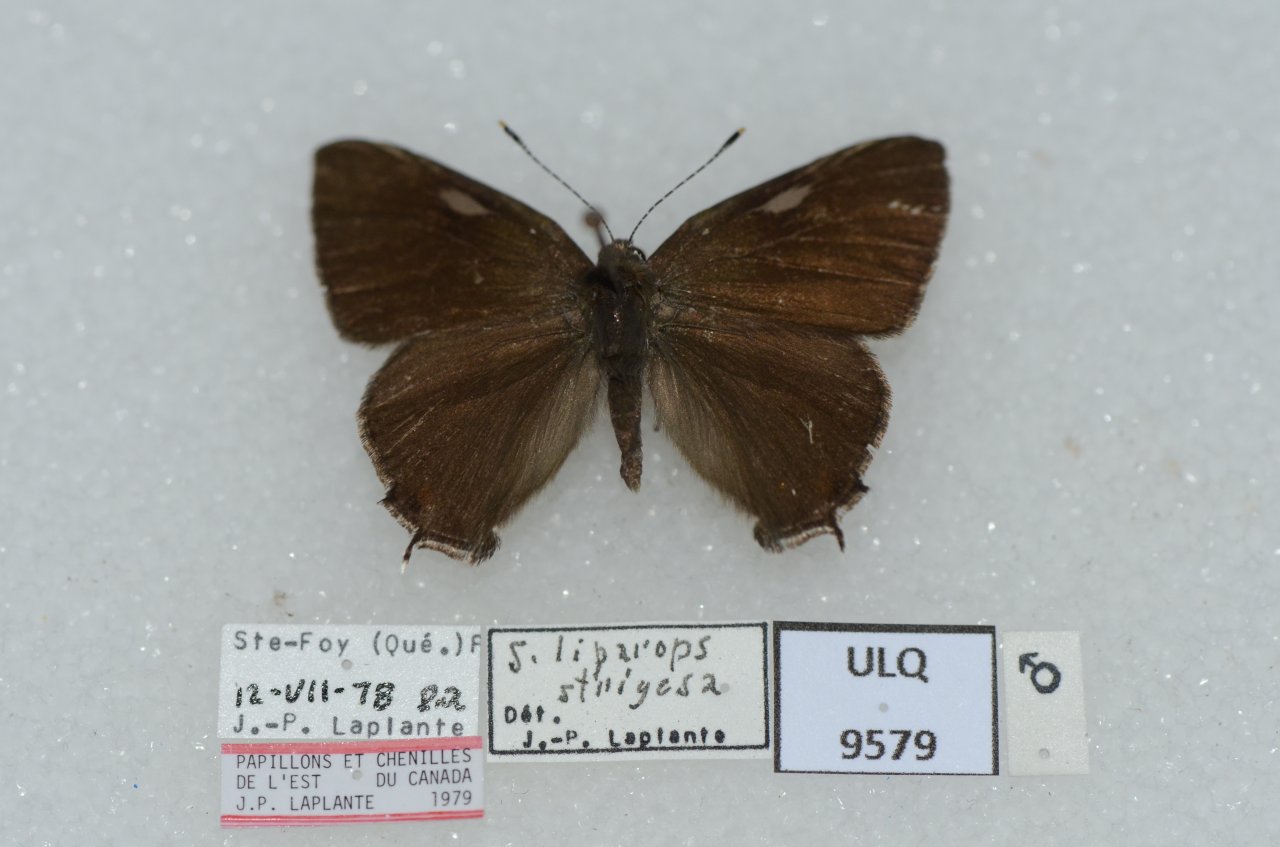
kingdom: Animalia
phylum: Arthropoda
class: Insecta
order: Lepidoptera
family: Lycaenidae
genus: Satyrium
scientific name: Satyrium liparops
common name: Striped Hairstreak
